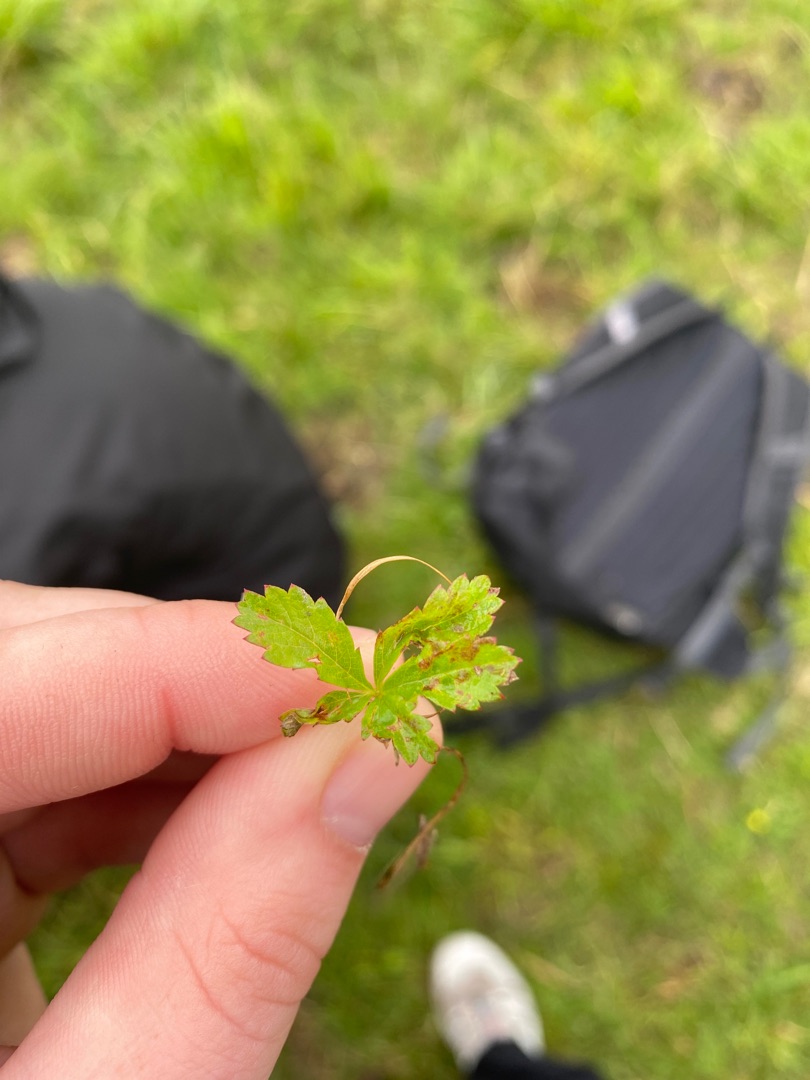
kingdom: Plantae
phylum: Tracheophyta
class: Magnoliopsida
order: Rosales
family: Rosaceae
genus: Potentilla
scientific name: Potentilla reptans
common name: Krybende potentil
